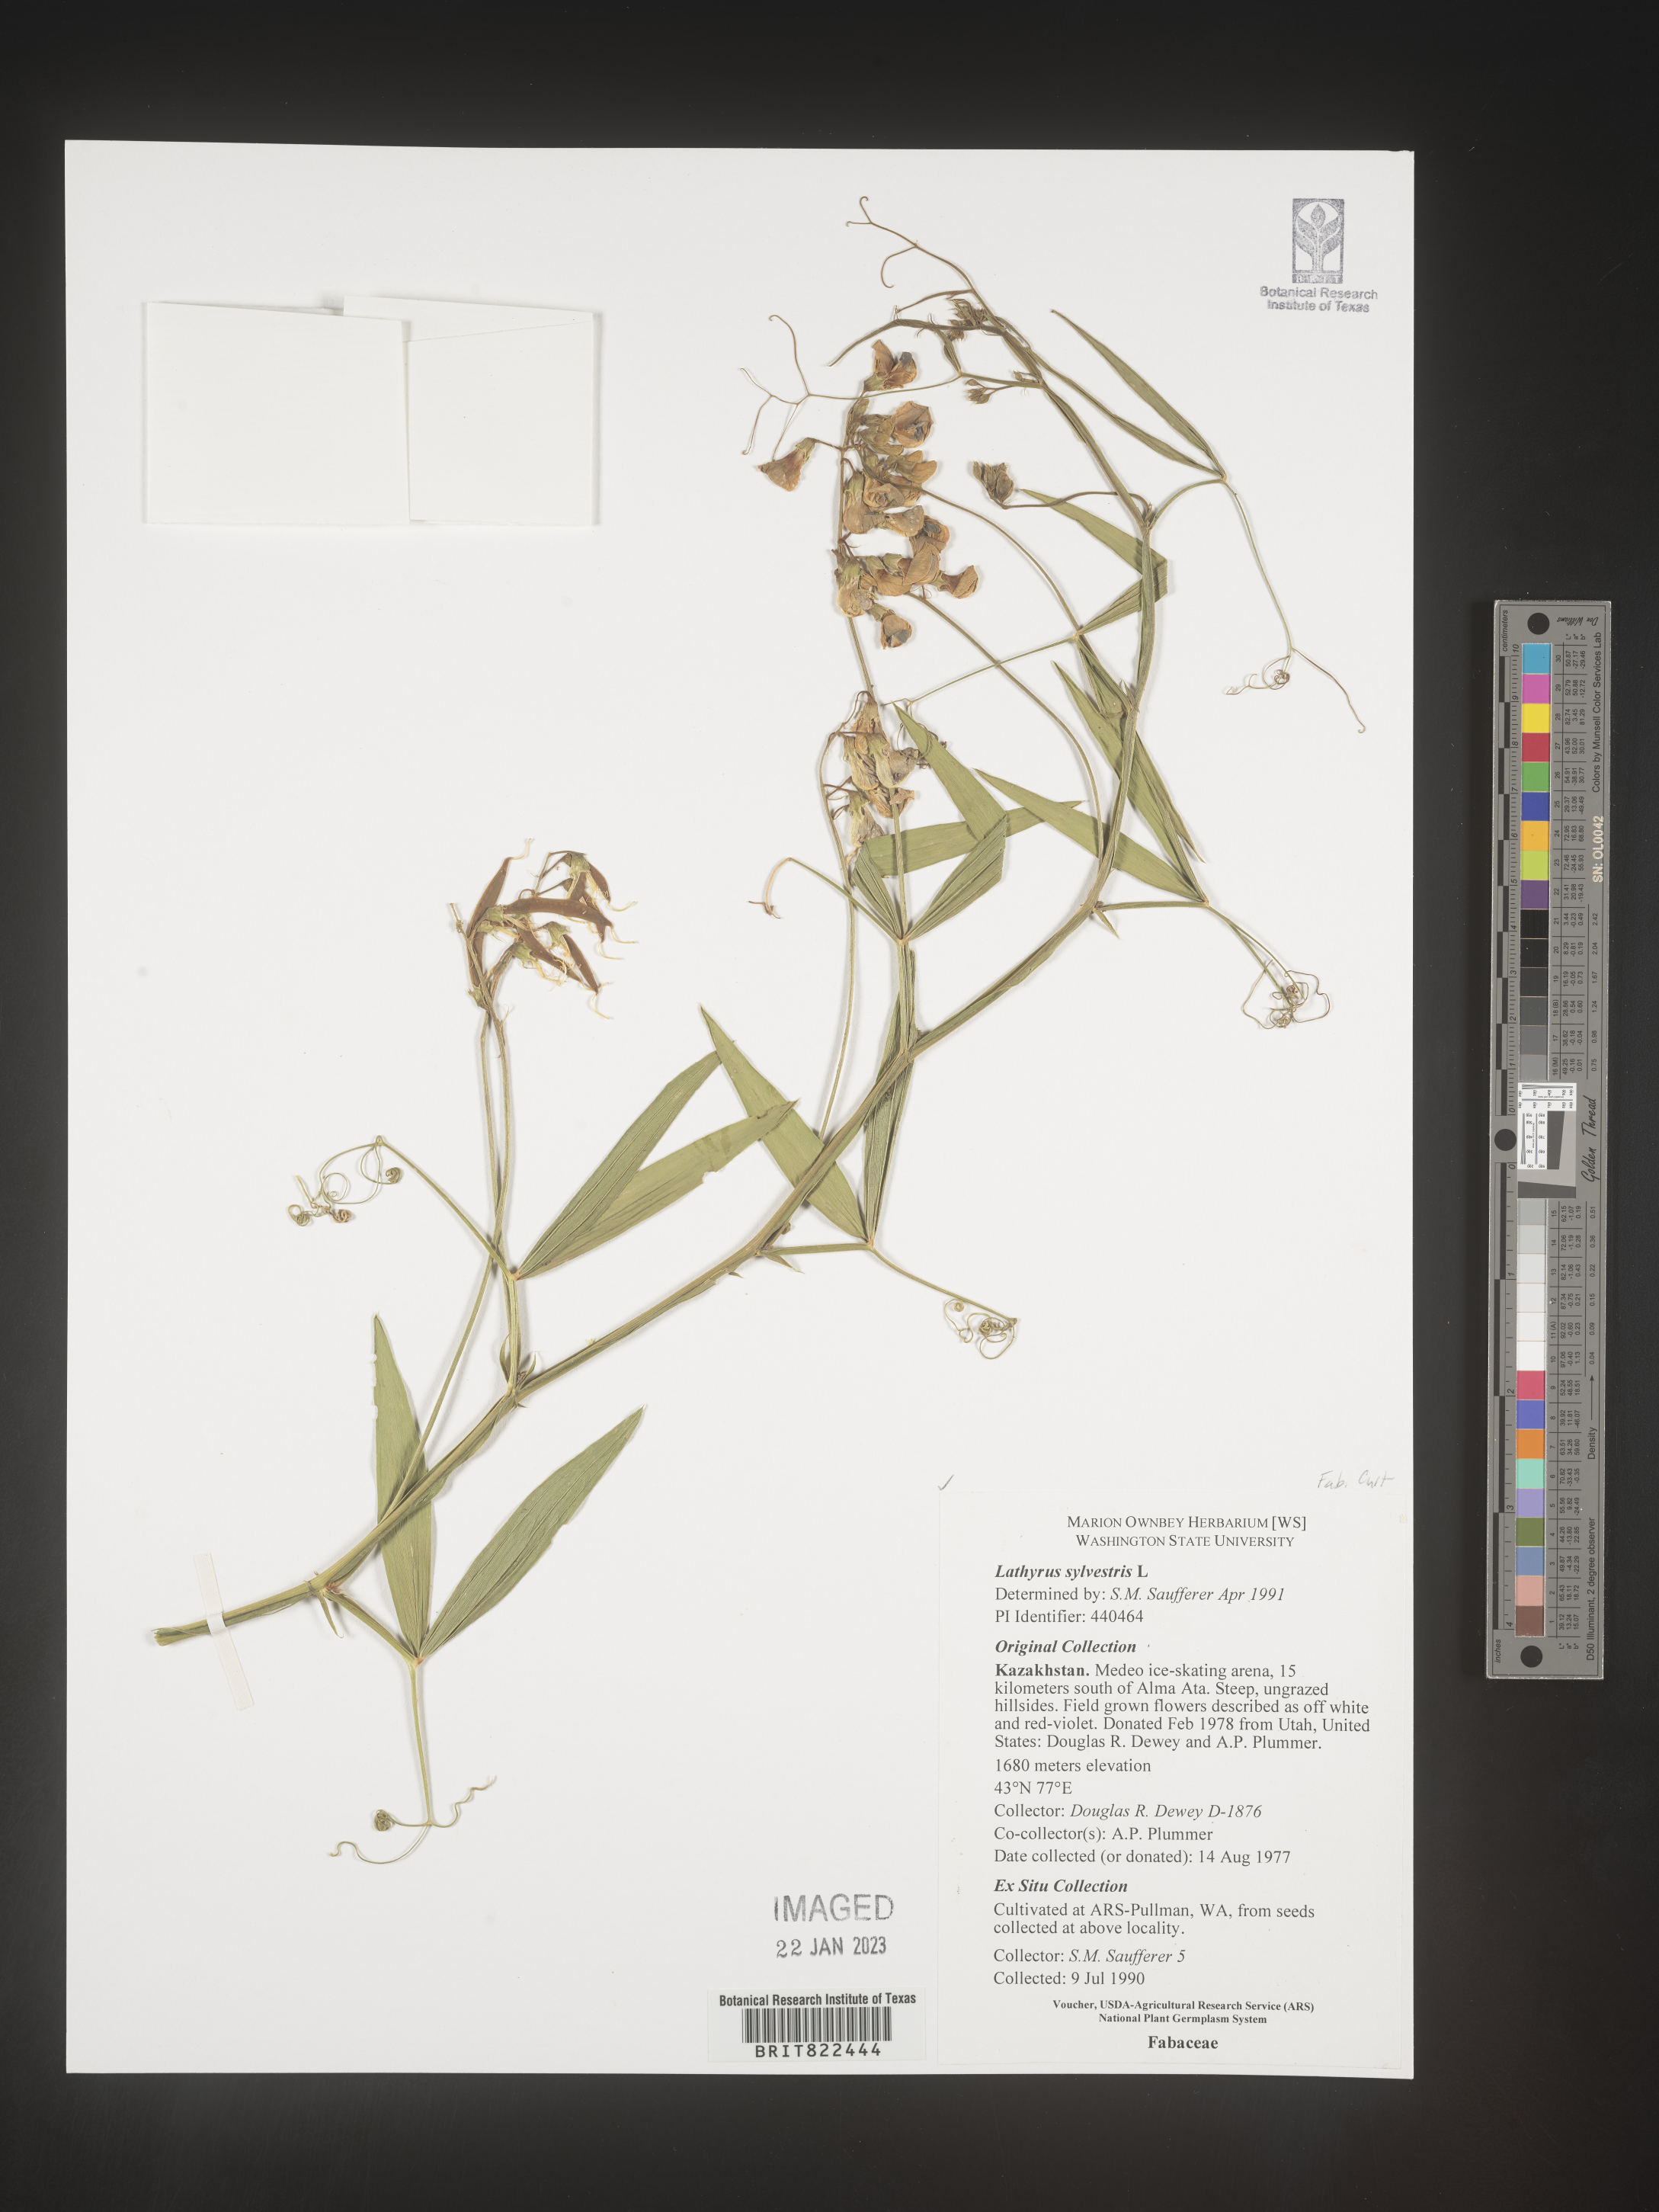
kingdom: Plantae
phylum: Tracheophyta
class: Magnoliopsida
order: Fabales
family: Fabaceae
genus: Lathyrus
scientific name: Lathyrus
